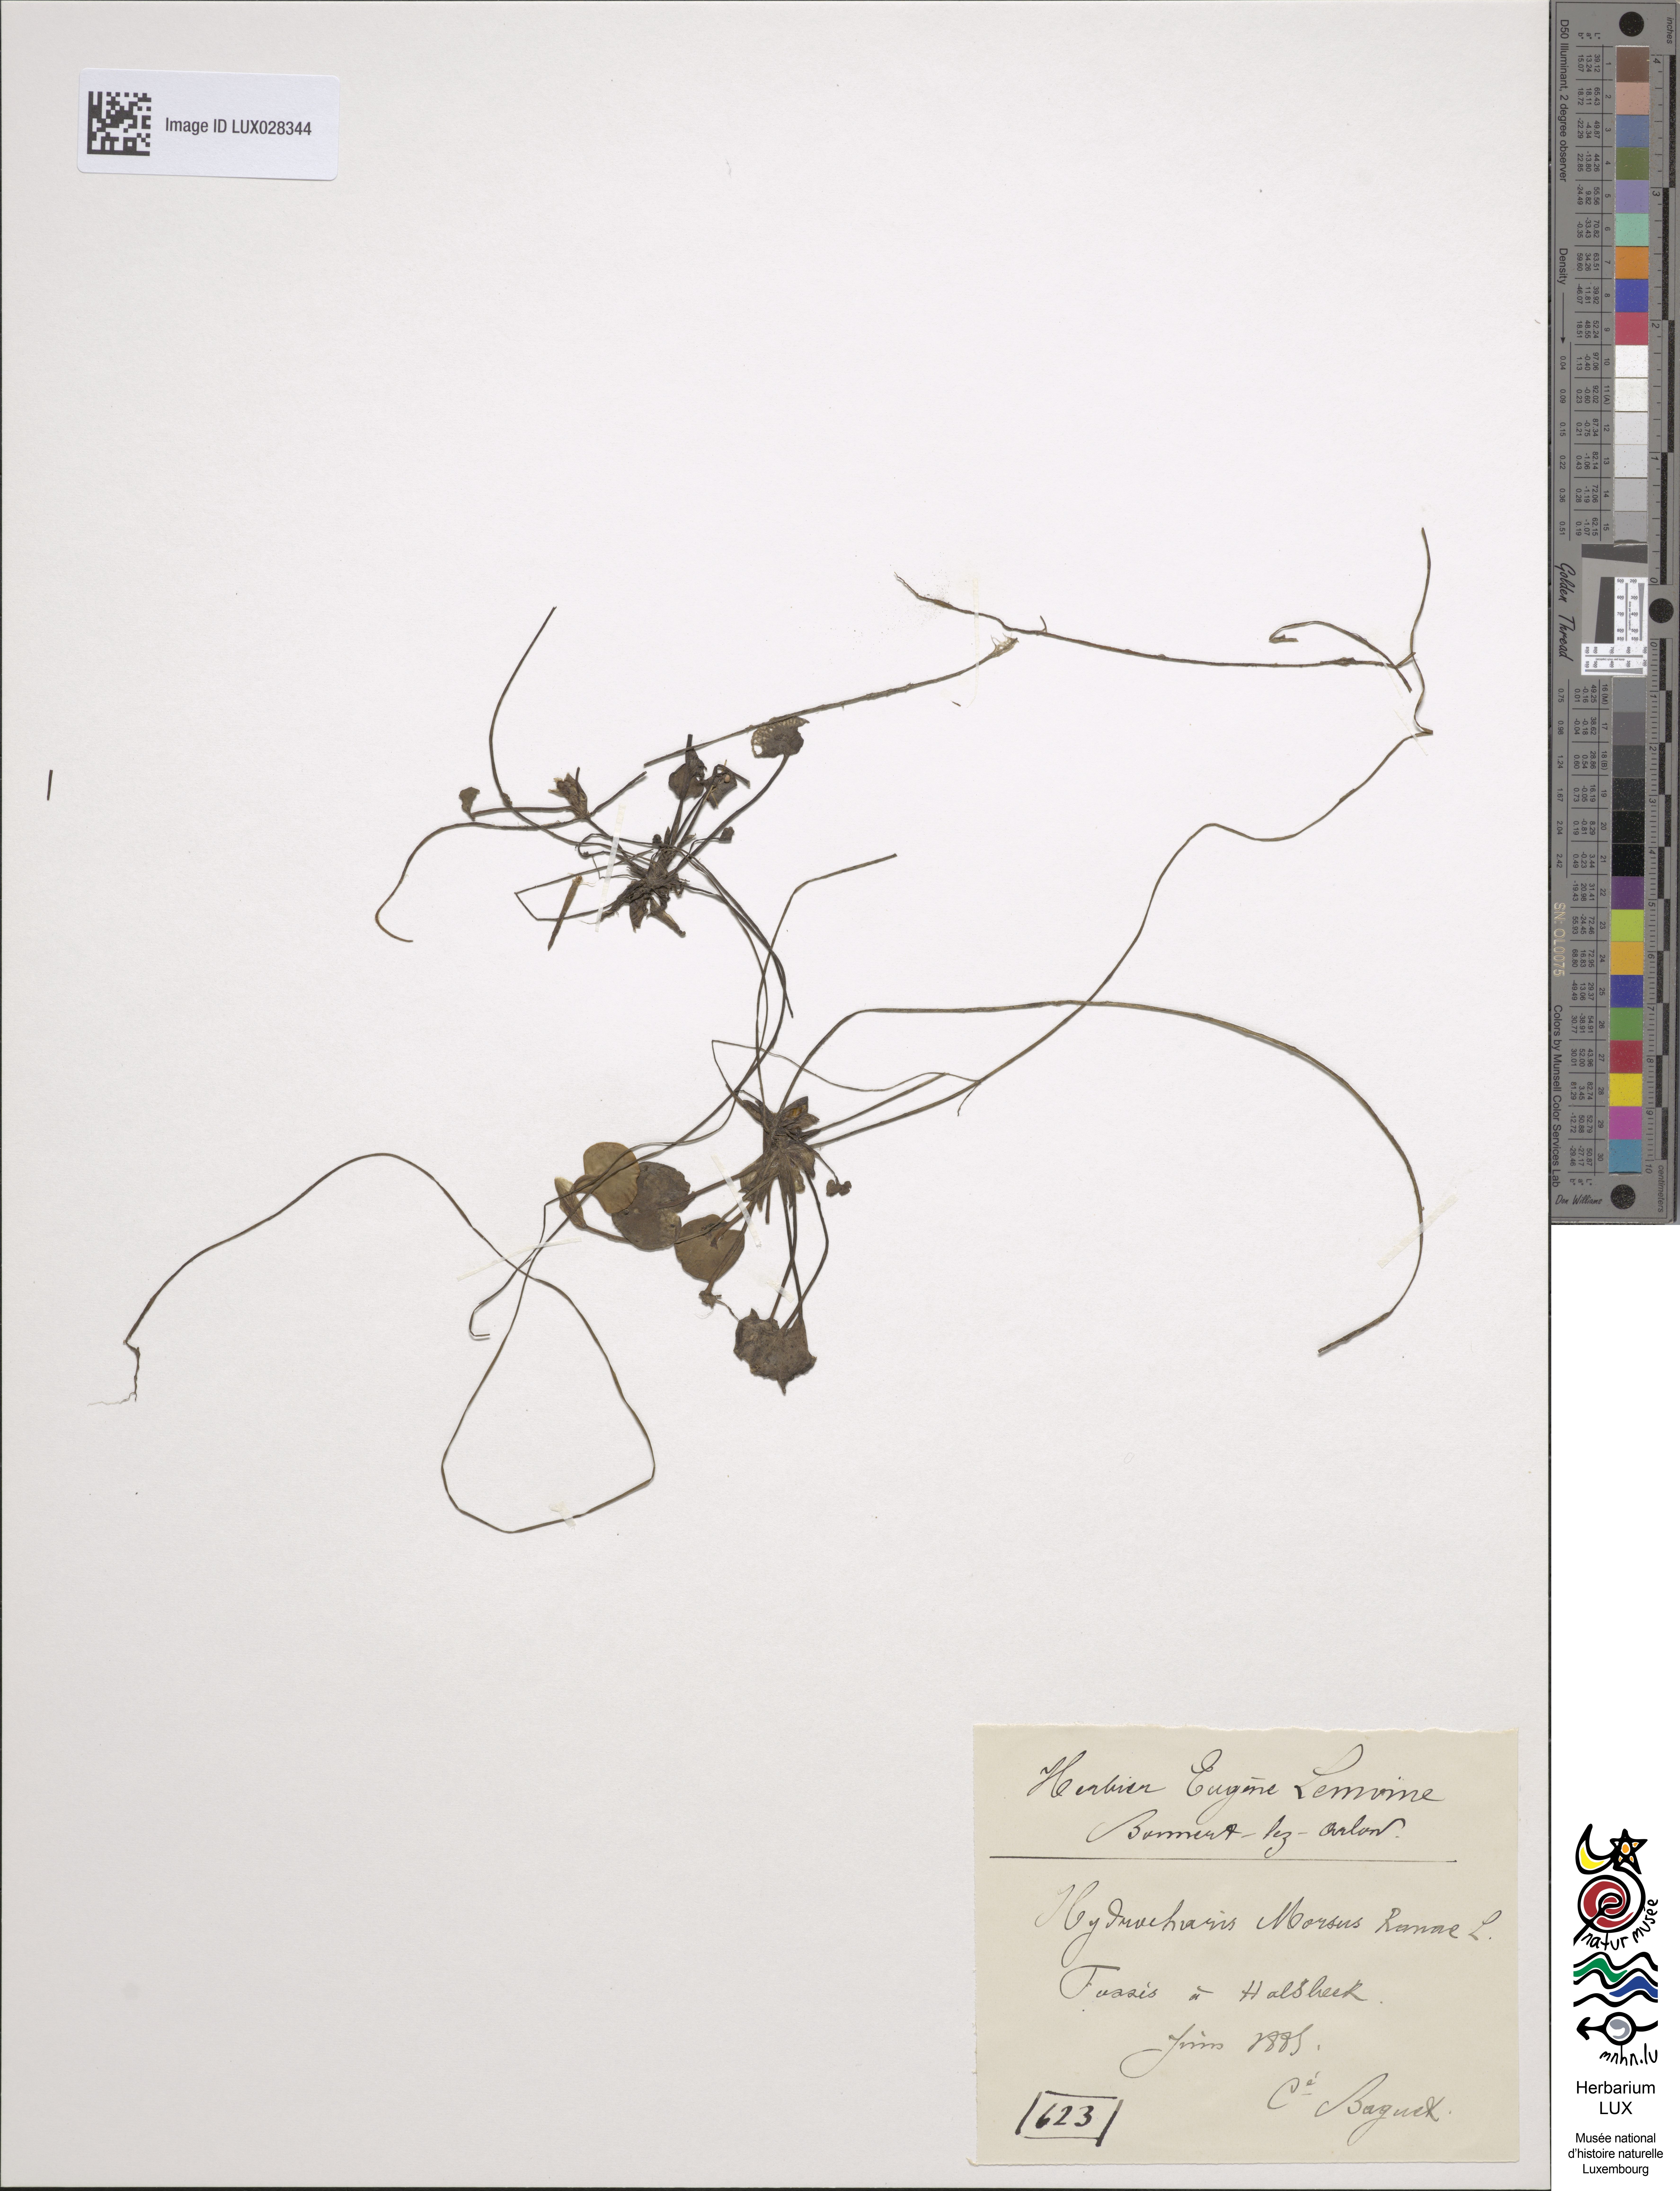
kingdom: Plantae
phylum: Tracheophyta
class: Liliopsida
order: Alismatales
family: Hydrocharitaceae
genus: Hydrocharis
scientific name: Hydrocharis morsus-ranae
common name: Frogbit
